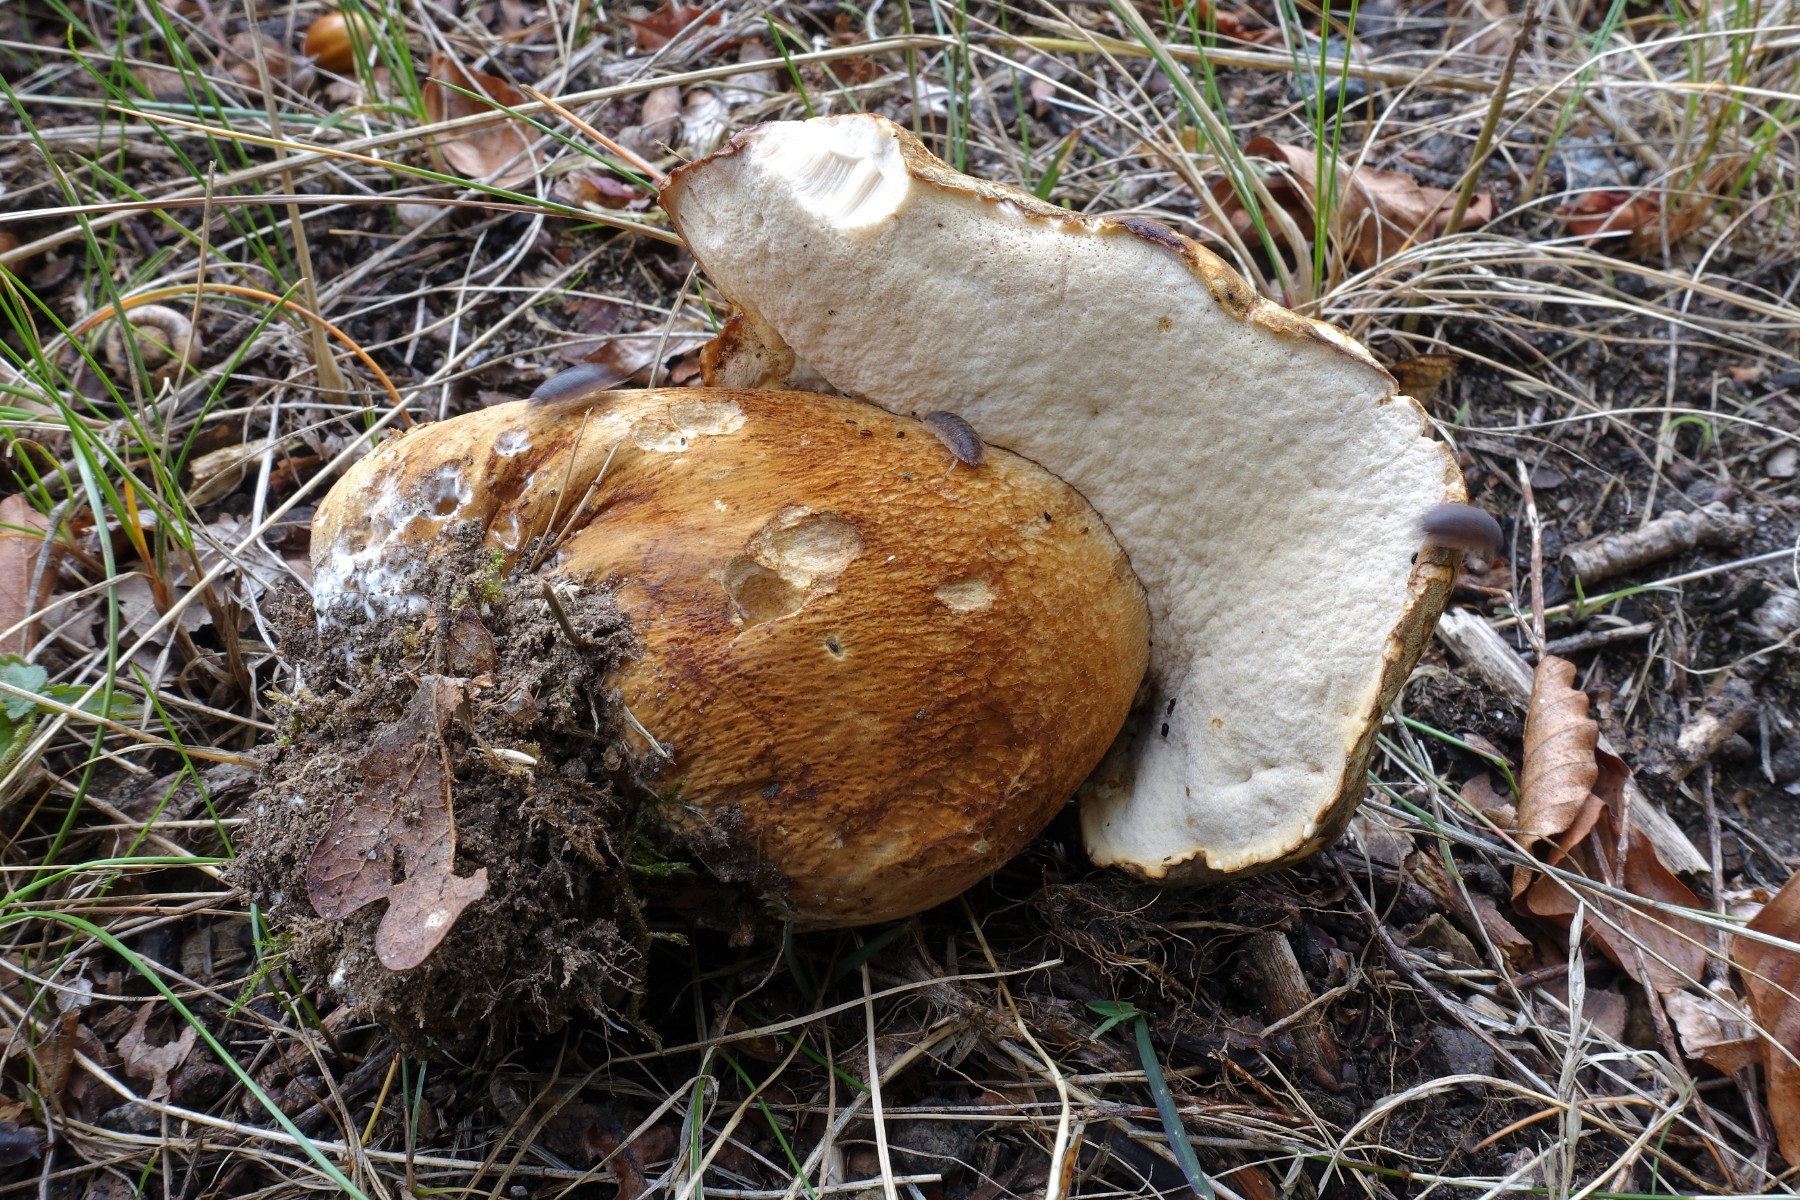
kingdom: Fungi
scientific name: Fungi
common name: bronze-rørhat
